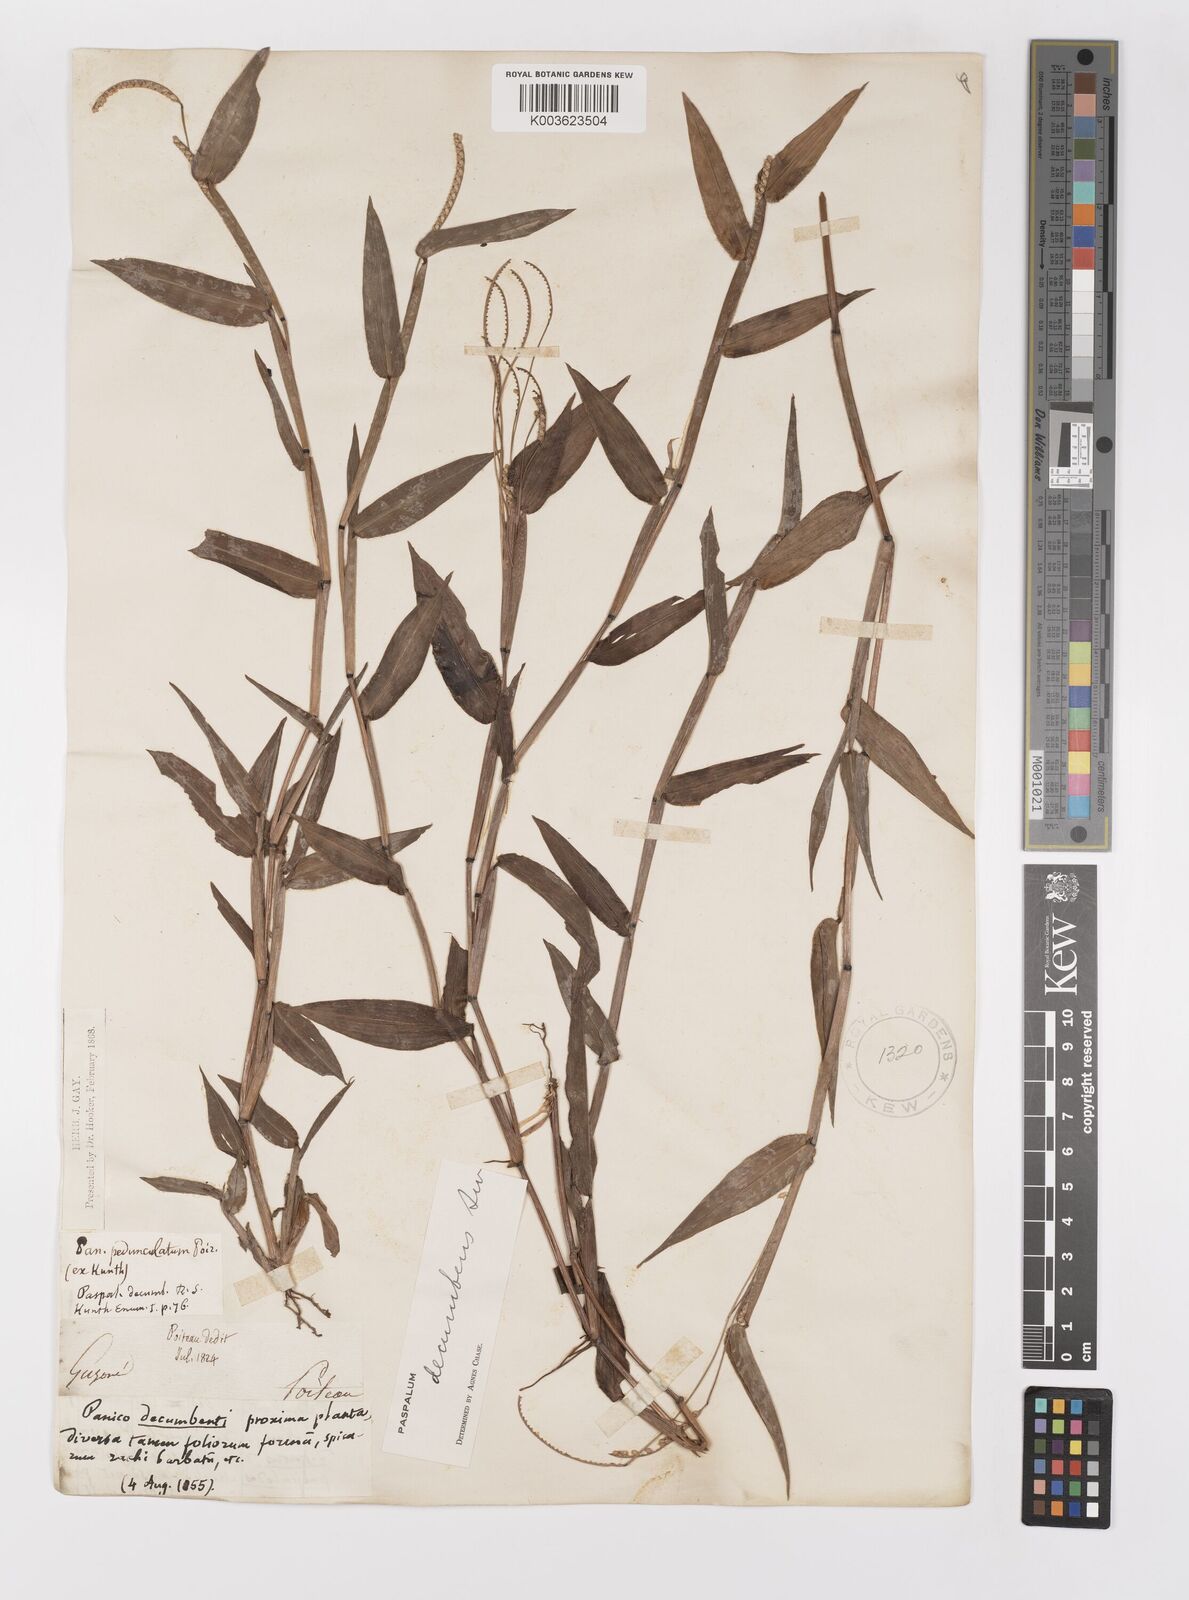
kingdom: Plantae
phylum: Tracheophyta
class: Liliopsida
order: Poales
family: Poaceae
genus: Paspalum
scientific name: Paspalum decumbens
